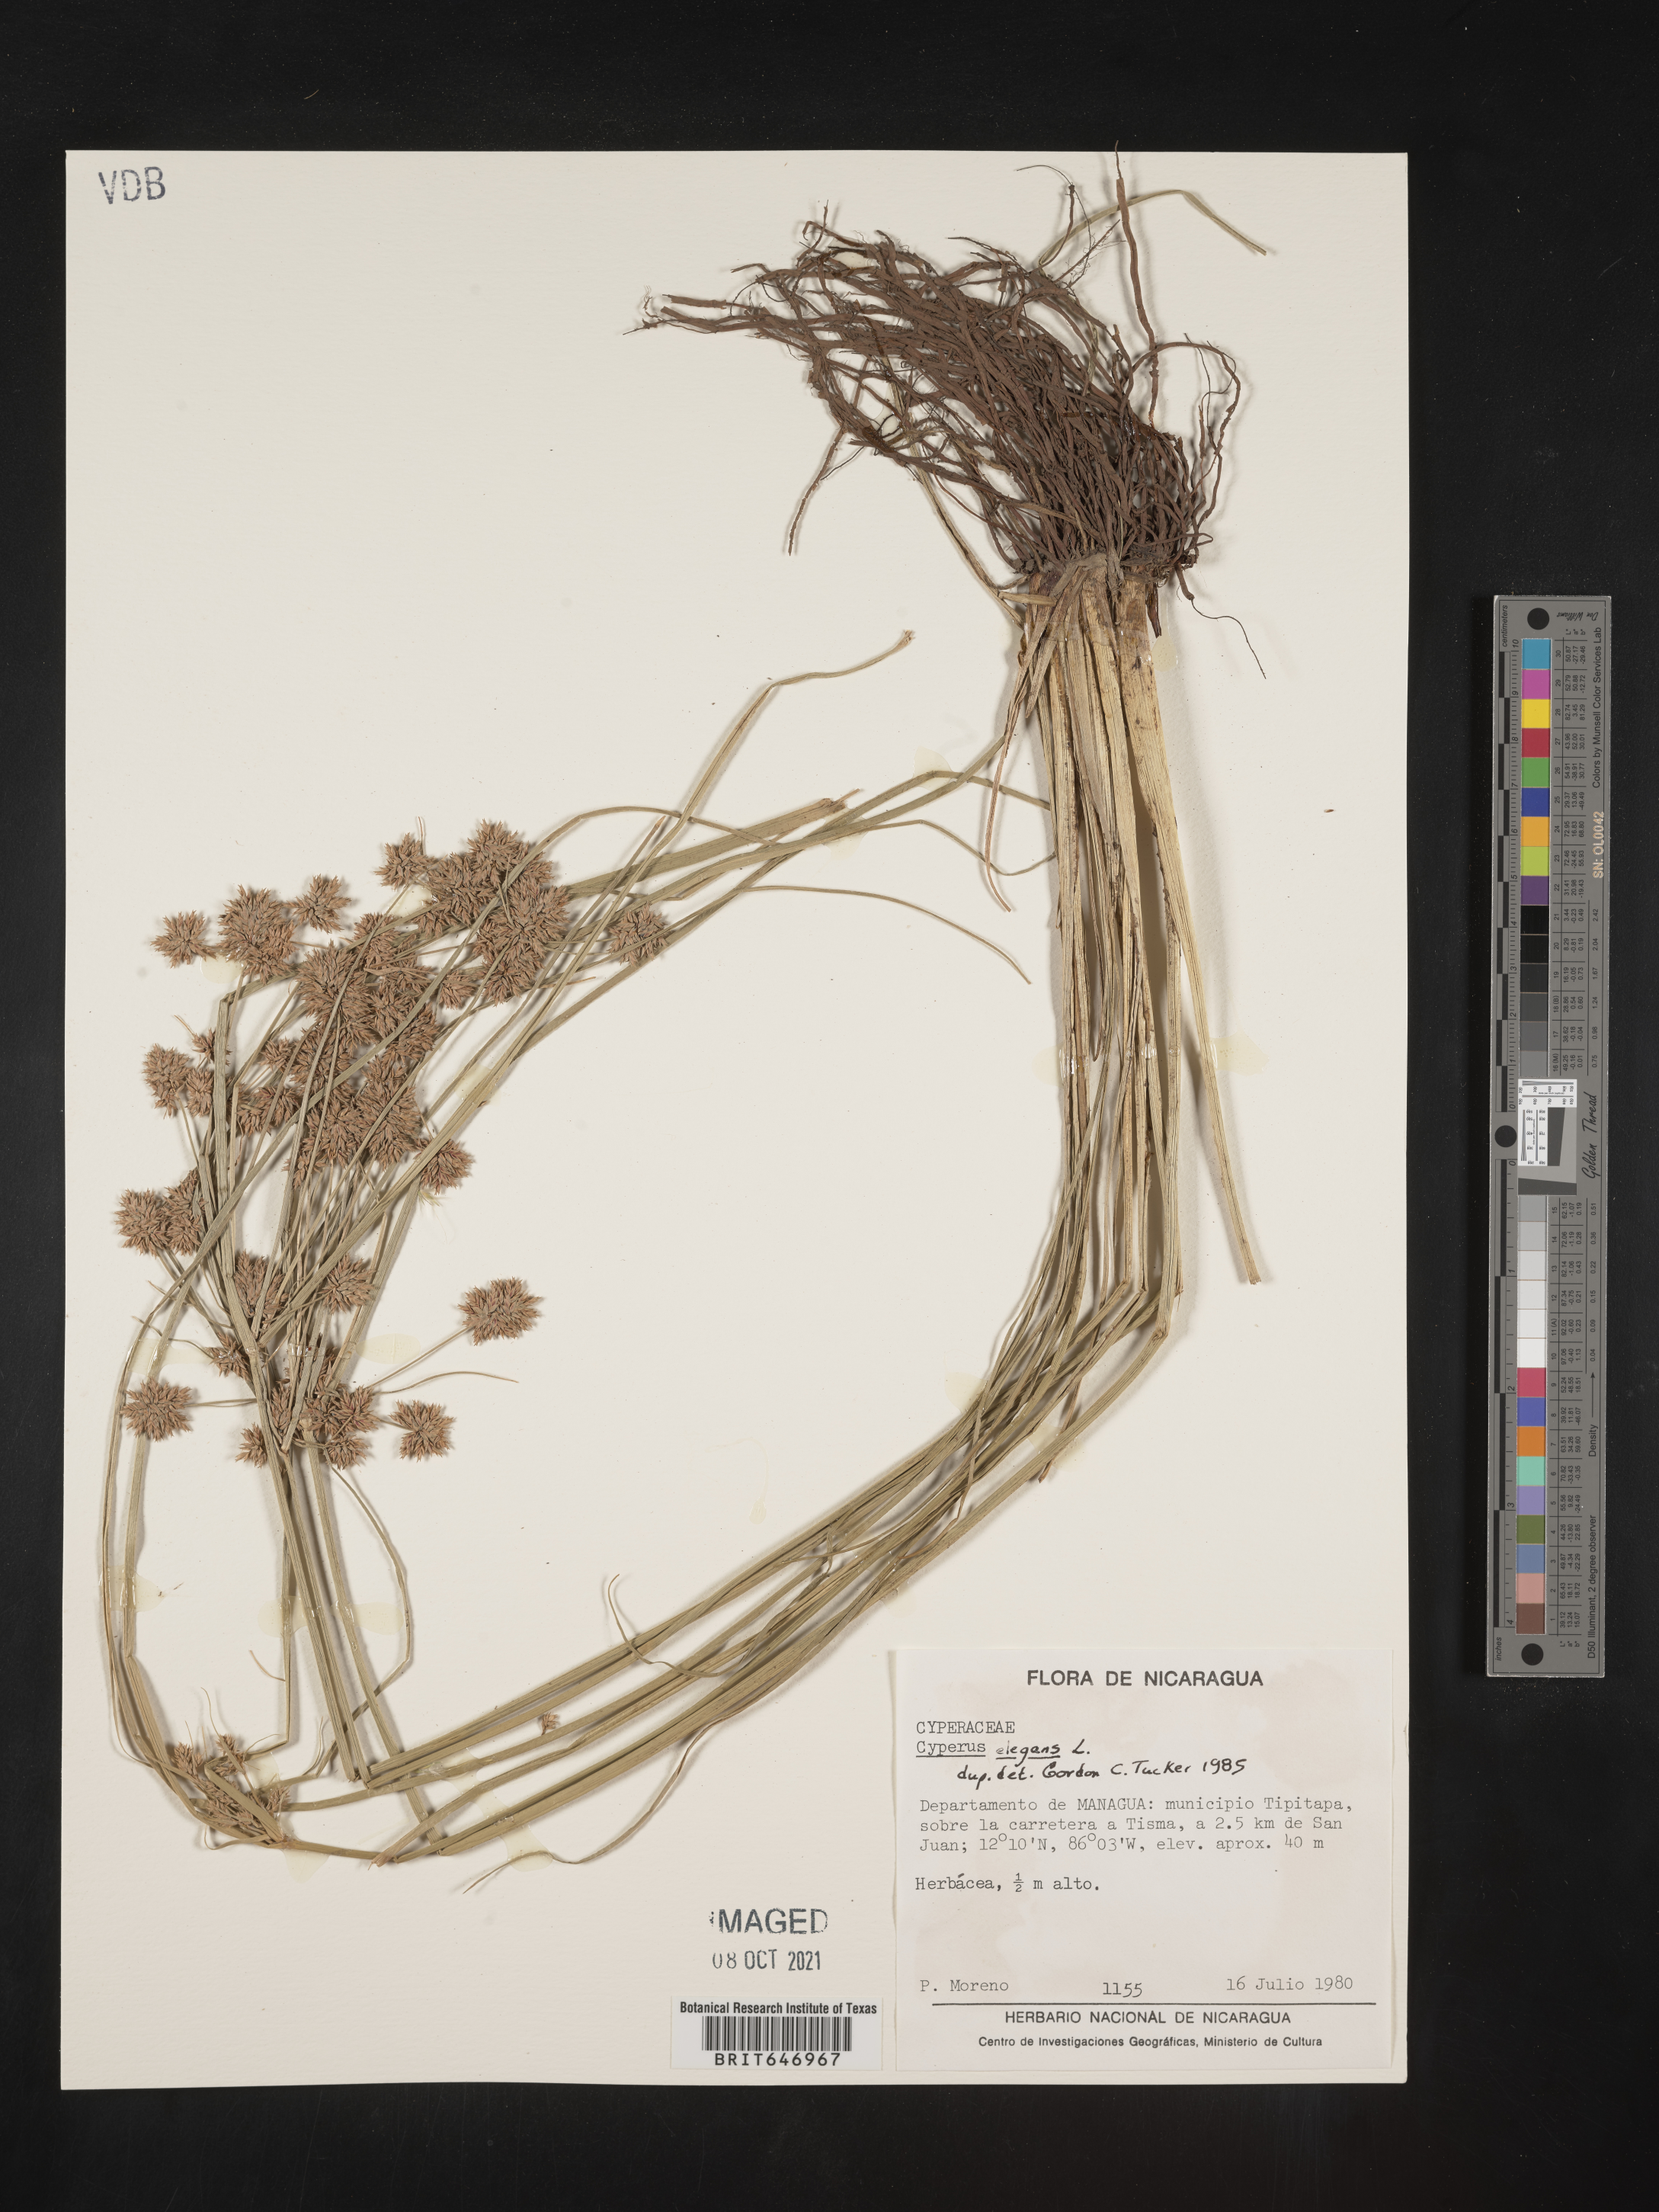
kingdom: Plantae
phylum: Tracheophyta
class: Liliopsida
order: Poales
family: Cyperaceae
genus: Cyperus
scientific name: Cyperus elegans
